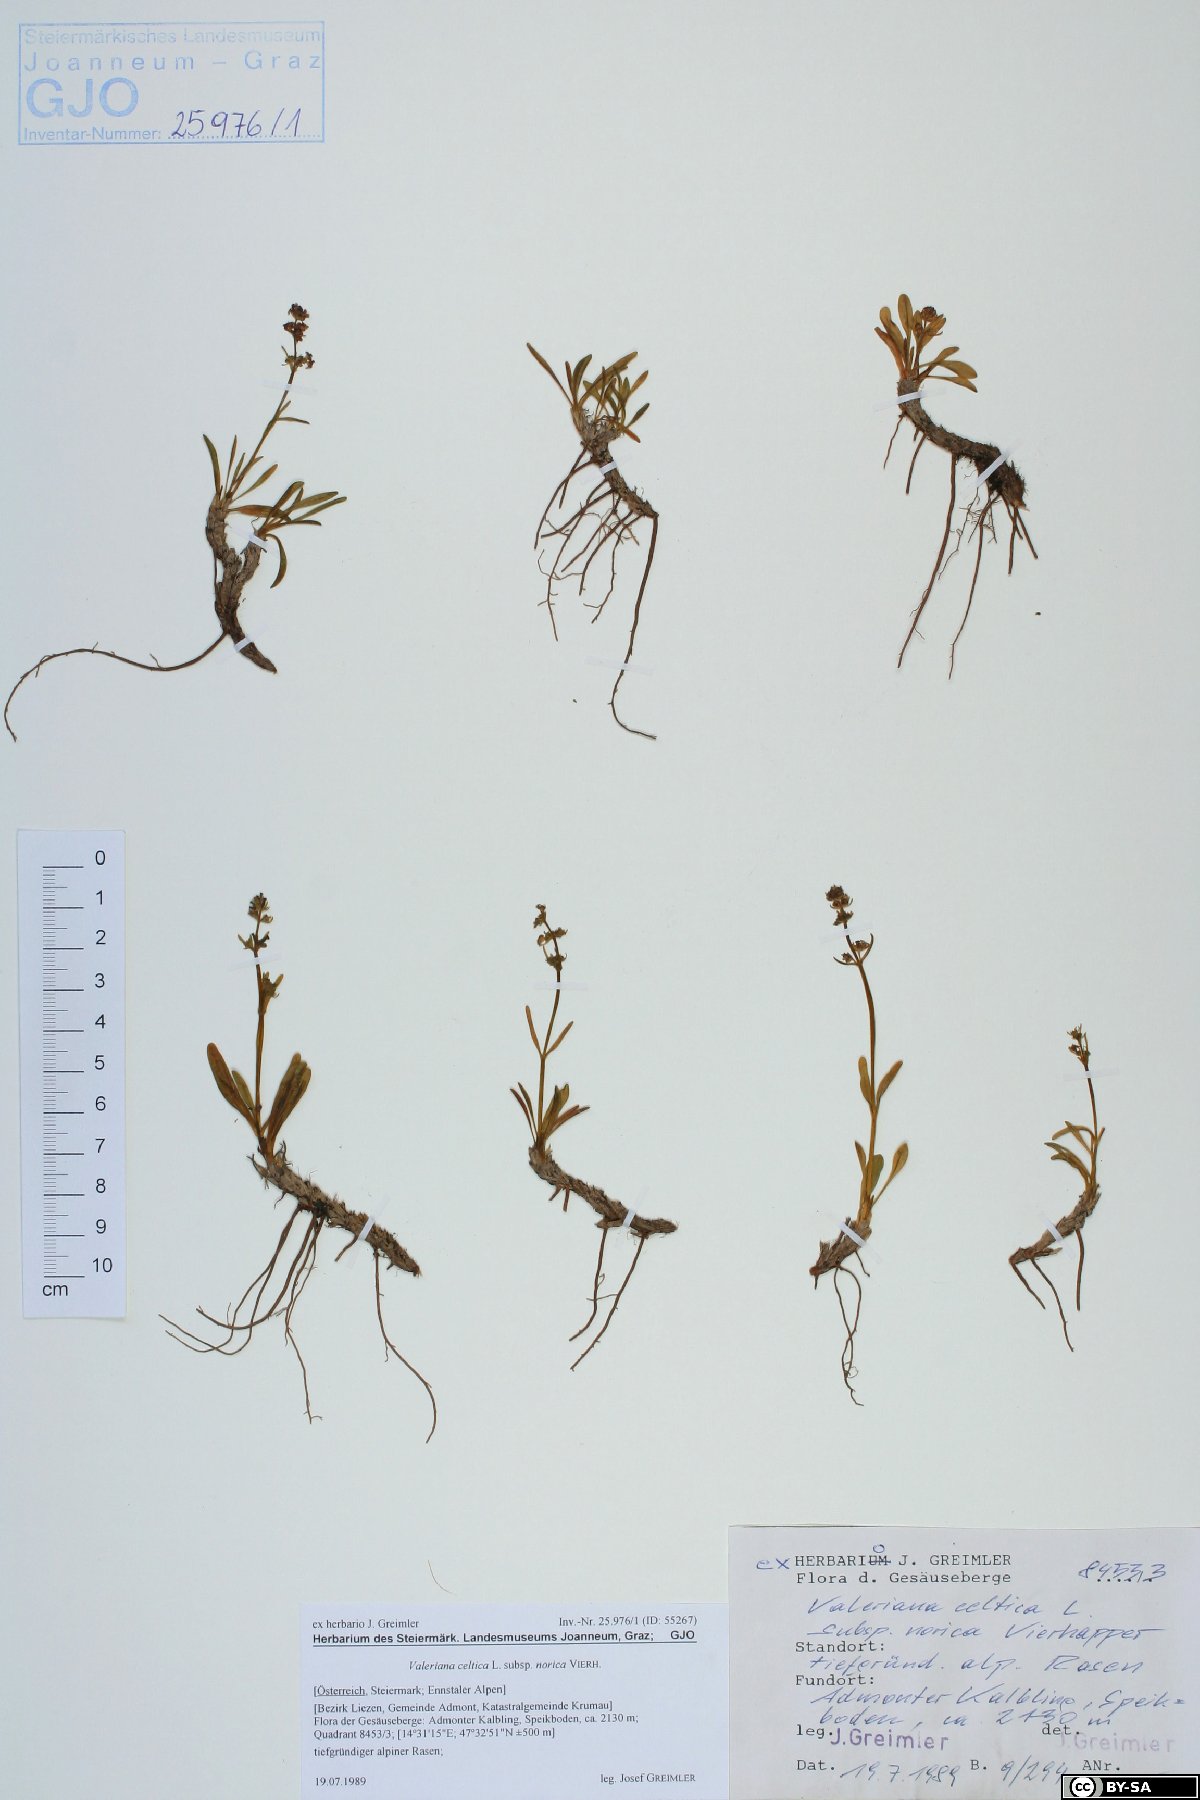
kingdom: Plantae
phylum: Tracheophyta
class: Magnoliopsida
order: Dipsacales
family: Caprifoliaceae
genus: Valeriana
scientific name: Valeriana celtica
